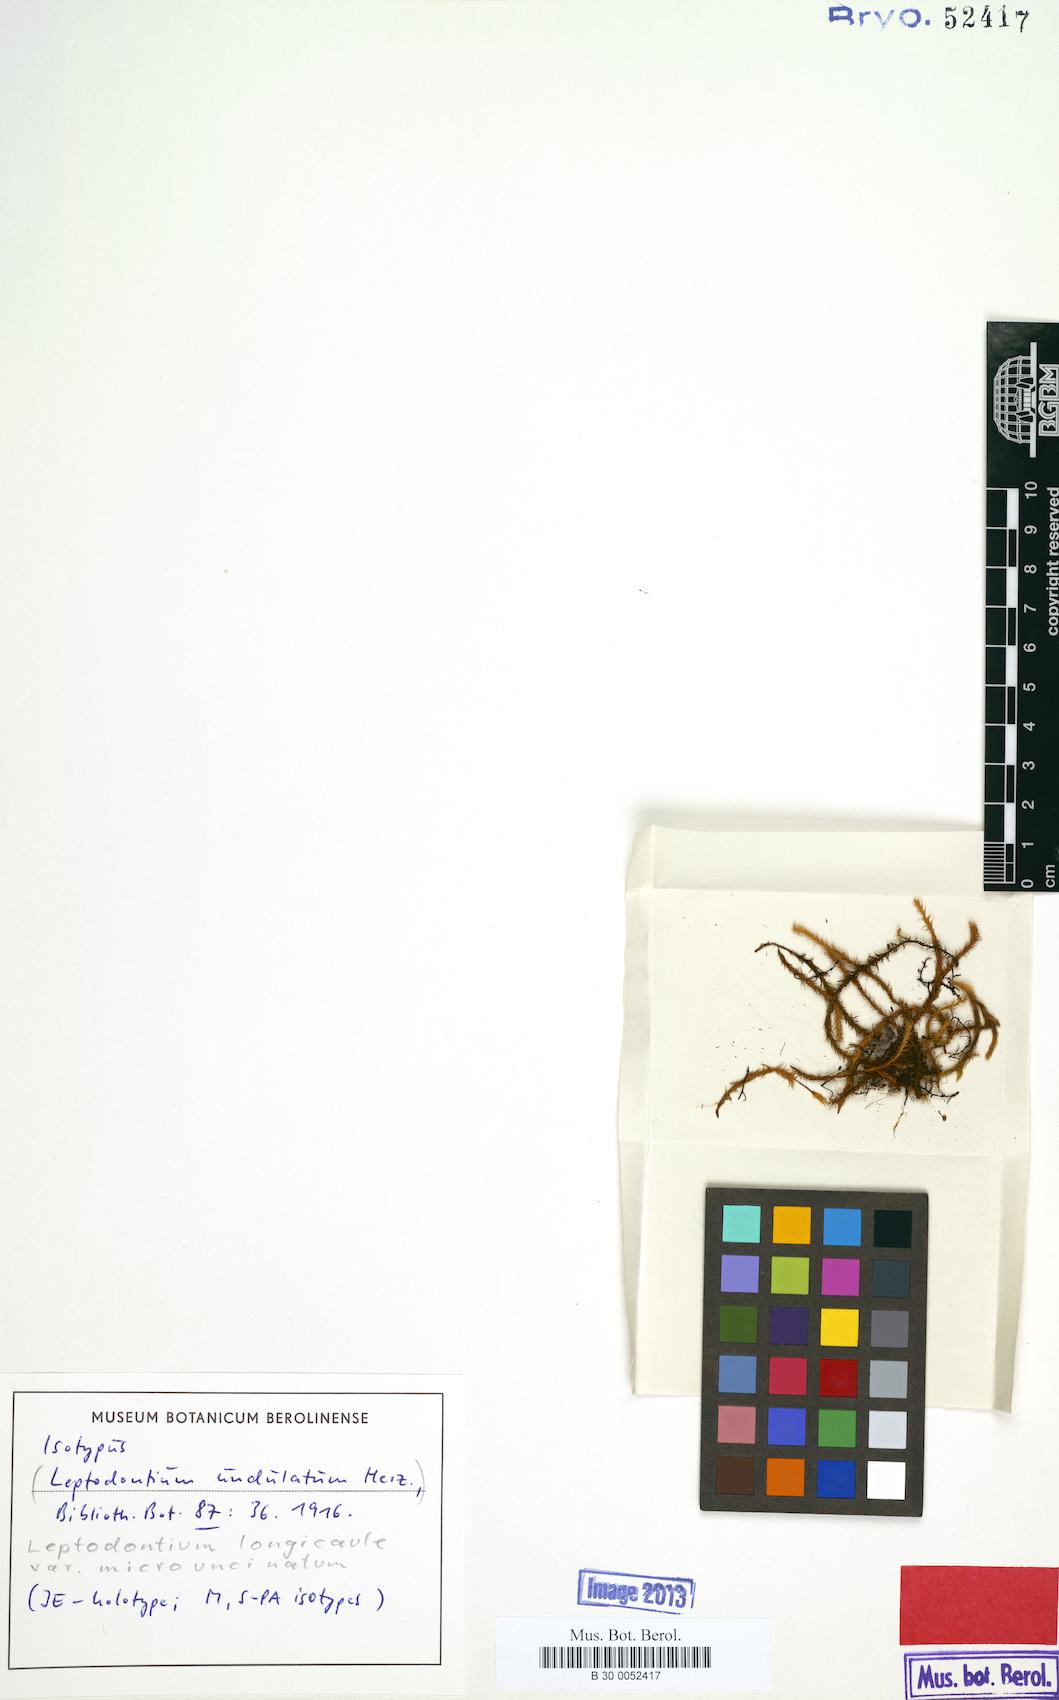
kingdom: Plantae
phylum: Bryophyta
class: Bryopsida
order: Pottiales
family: Pottiaceae
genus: Leptodontium
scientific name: Leptodontium longicaule
